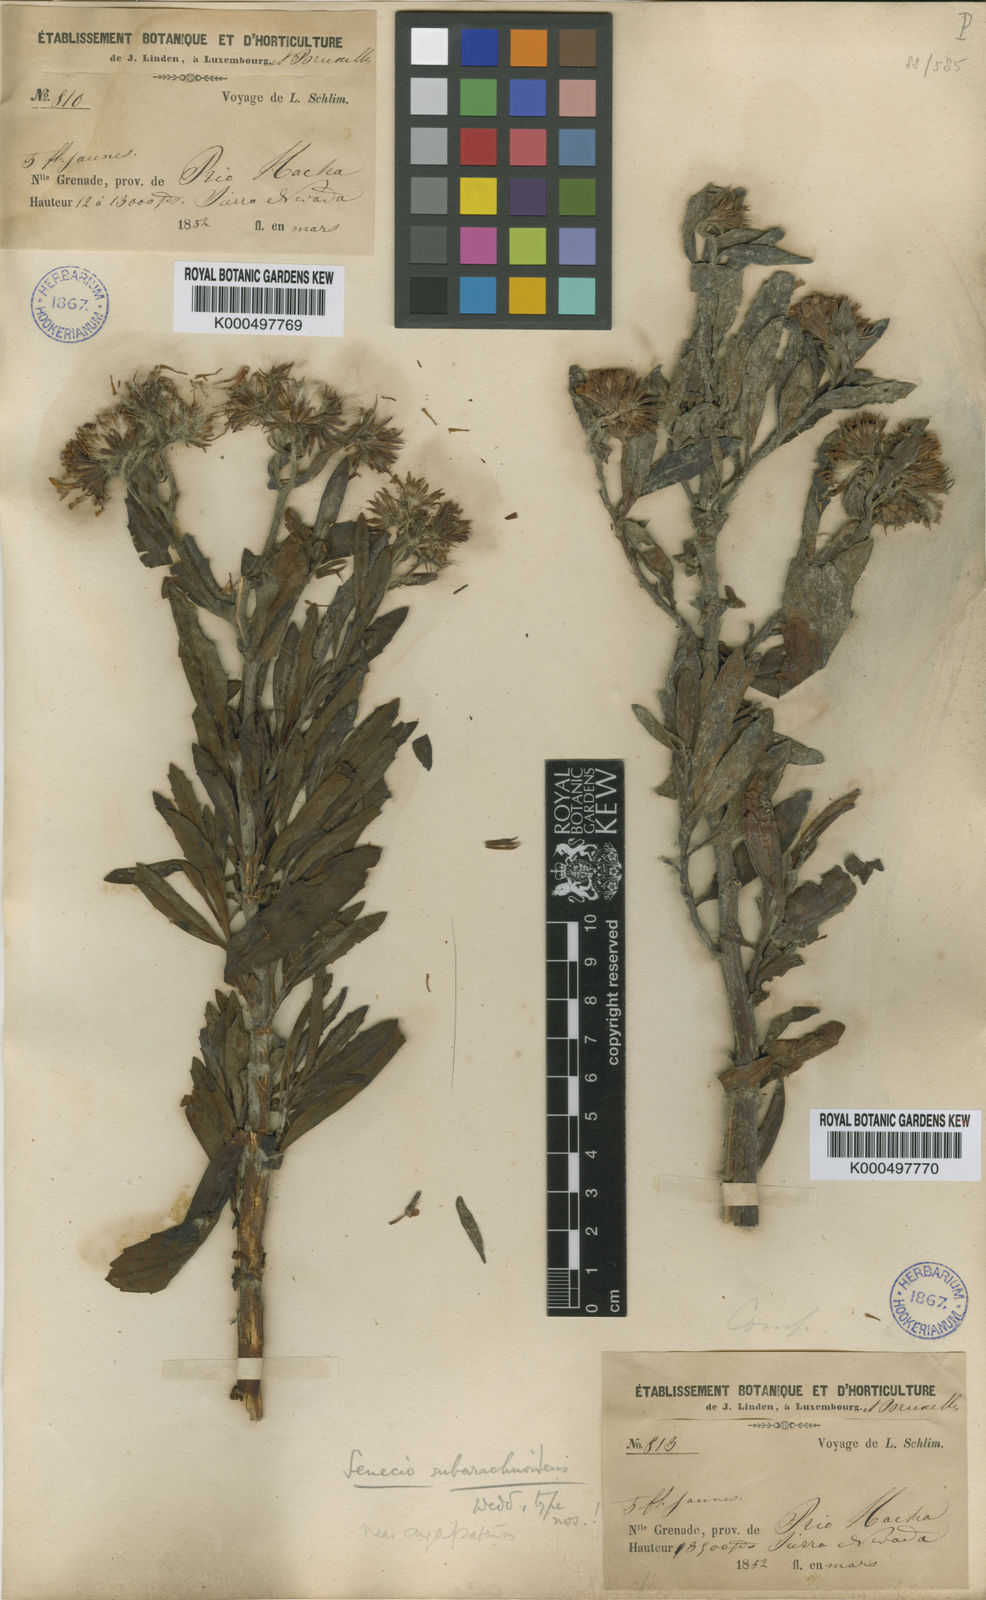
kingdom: Plantae
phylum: Tracheophyta
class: Magnoliopsida
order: Asterales
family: Asteraceae
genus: Monticalia
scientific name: Monticalia subarachnoidea
